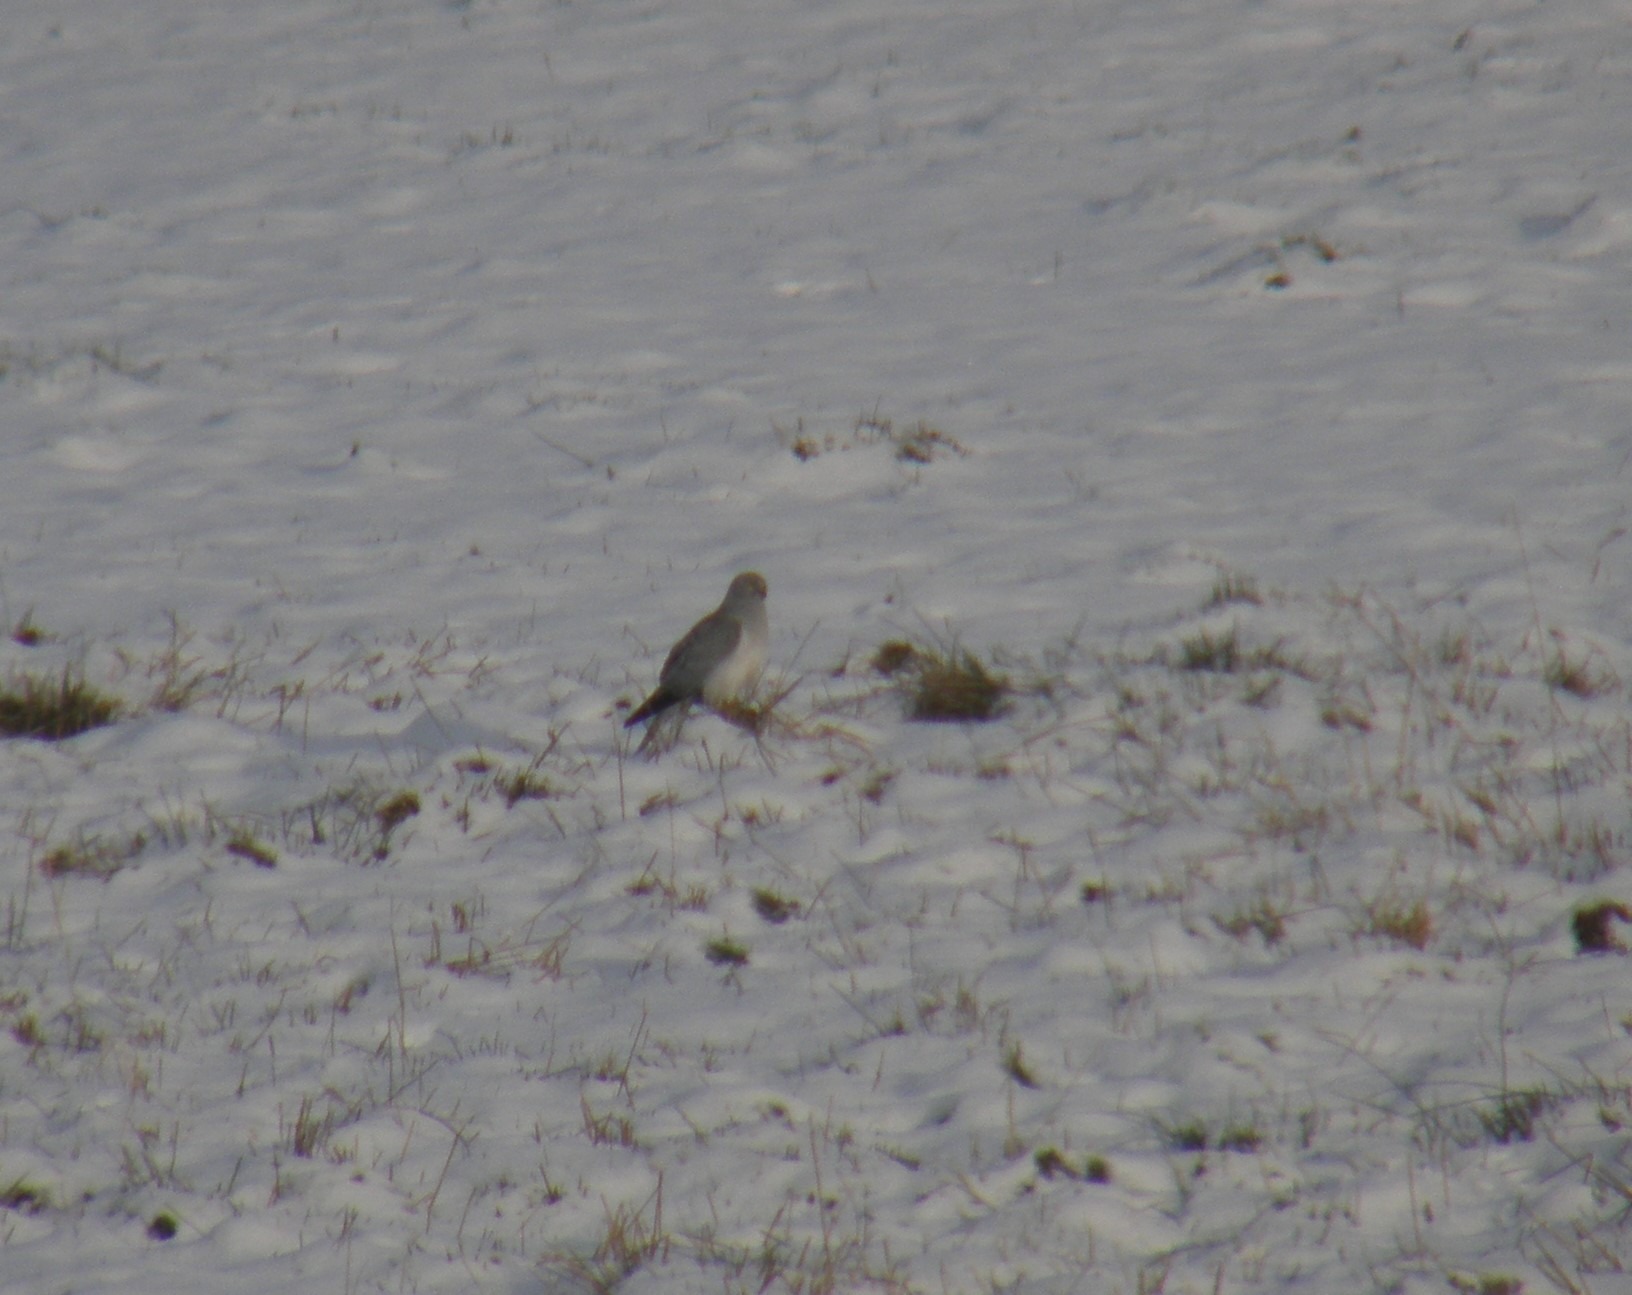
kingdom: Animalia
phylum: Chordata
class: Aves
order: Accipitriformes
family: Accipitridae
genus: Circus
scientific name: Circus cyaneus
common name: Blå kærhøg
